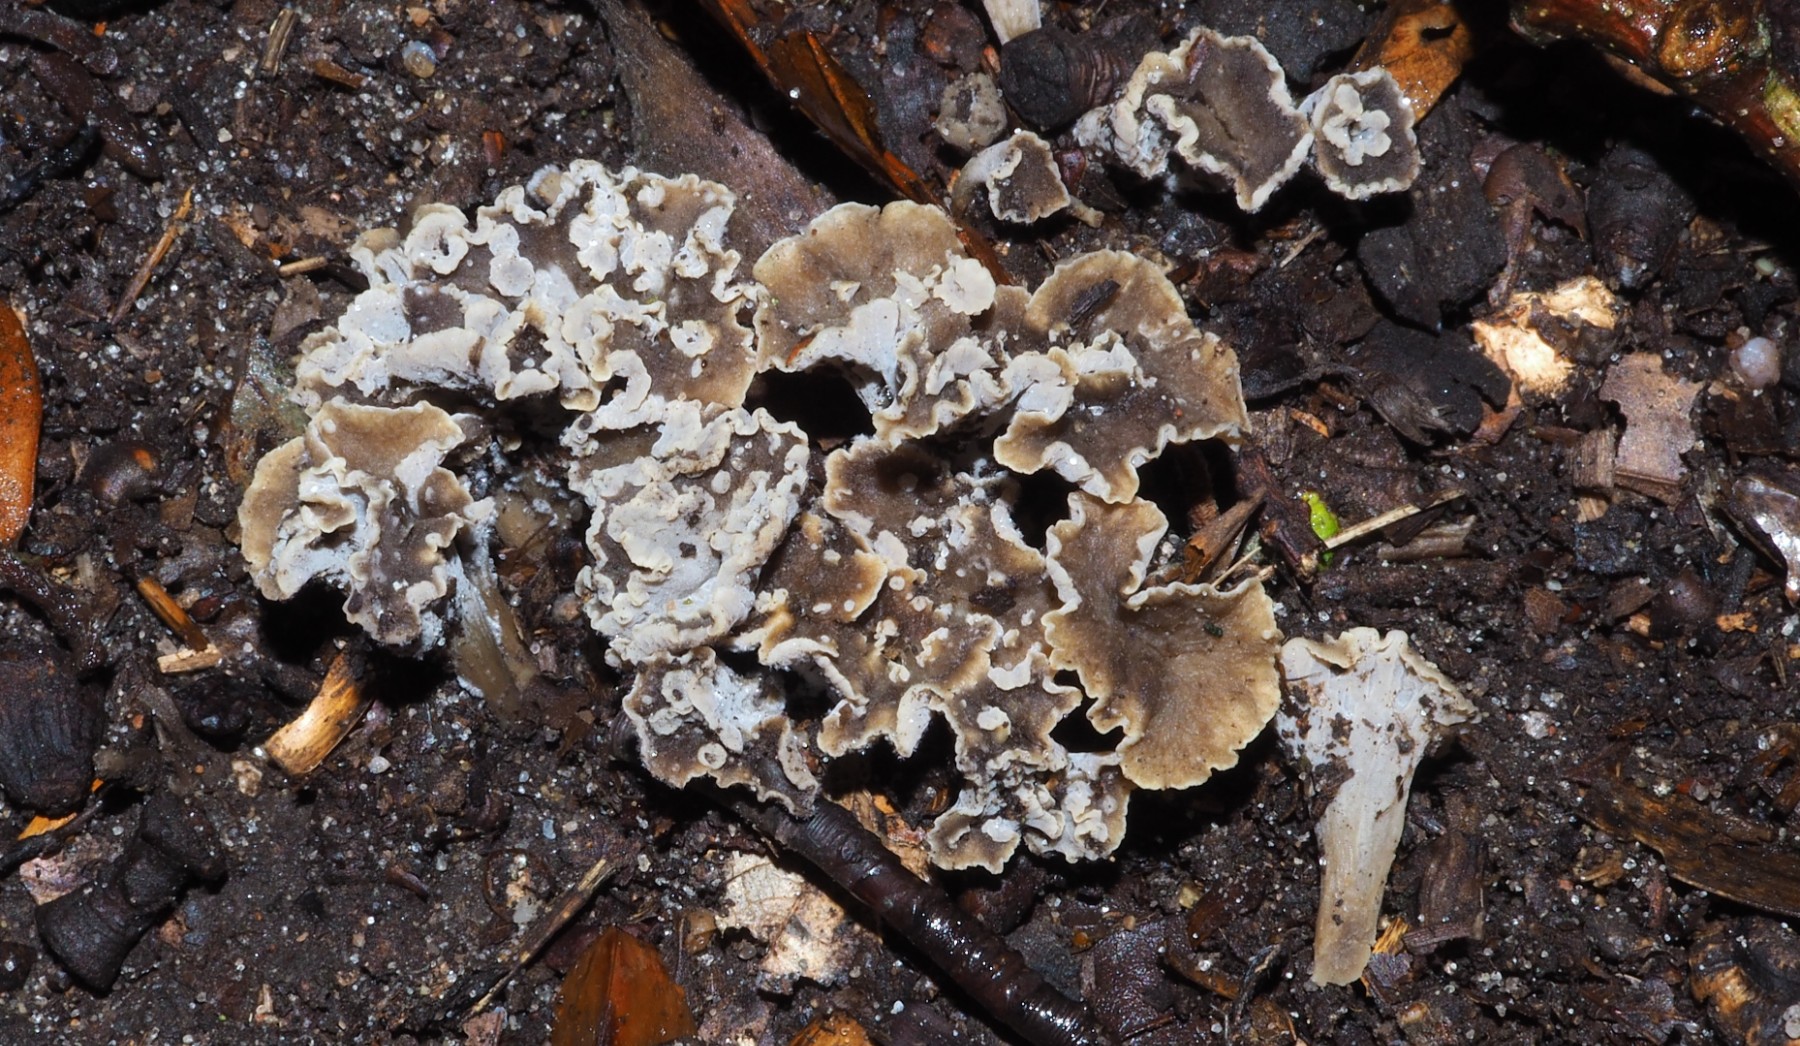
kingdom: Fungi
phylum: Basidiomycota
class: Agaricomycetes
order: Cantharellales
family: Hydnaceae
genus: Craterellus
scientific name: Craterellus undulatus
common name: liden kantarel
